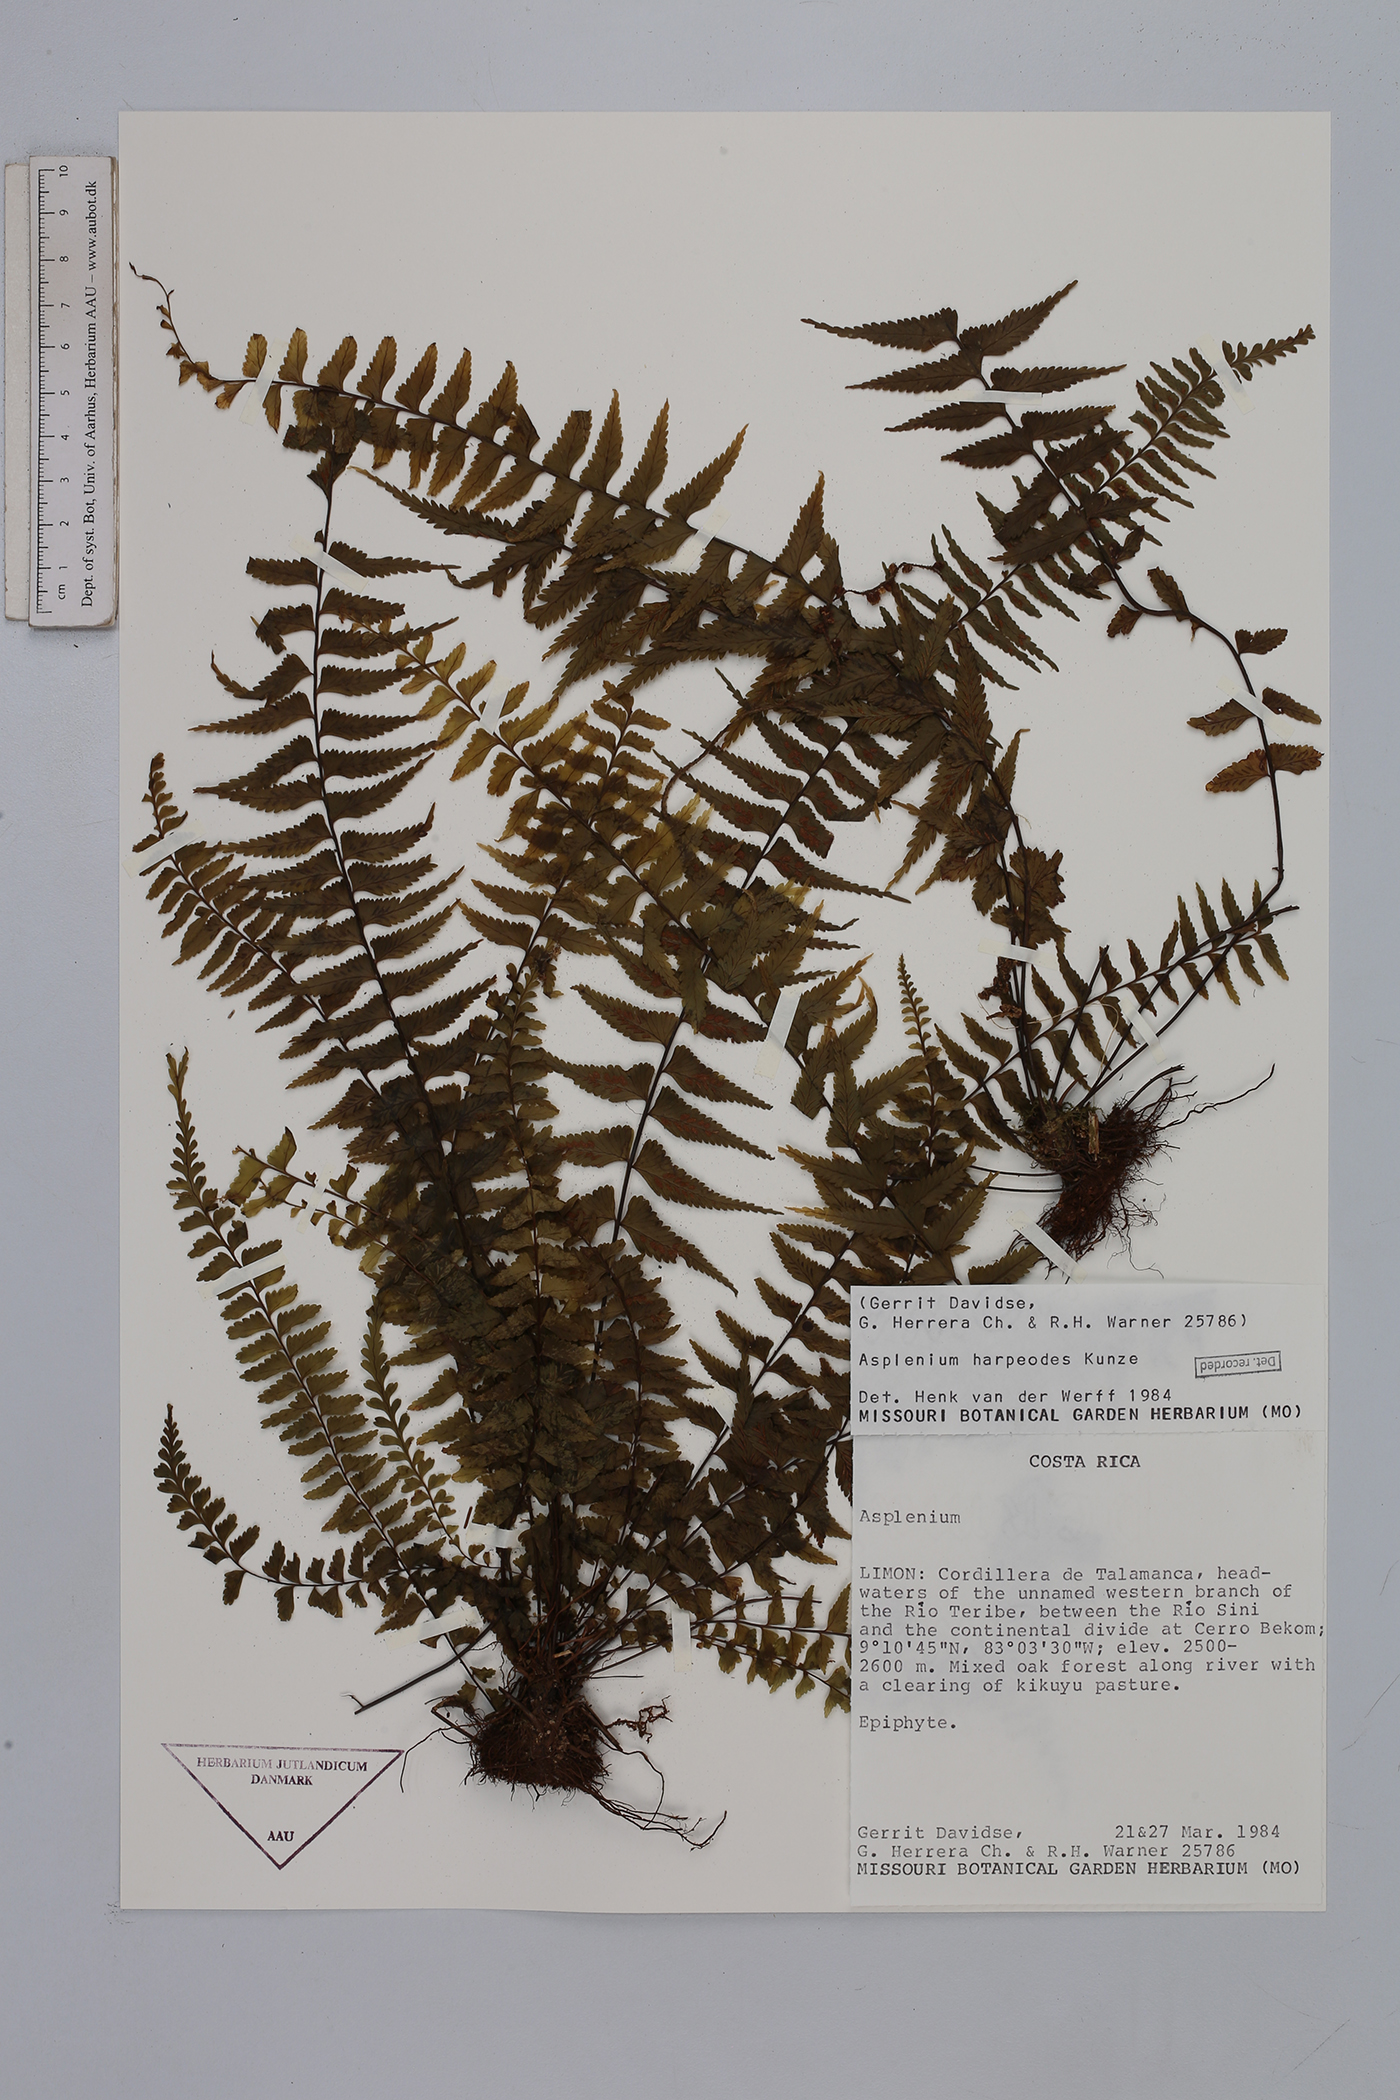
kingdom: Plantae
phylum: Tracheophyta
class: Polypodiopsida
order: Polypodiales
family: Aspleniaceae
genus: Asplenium
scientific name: Asplenium harpeodes
